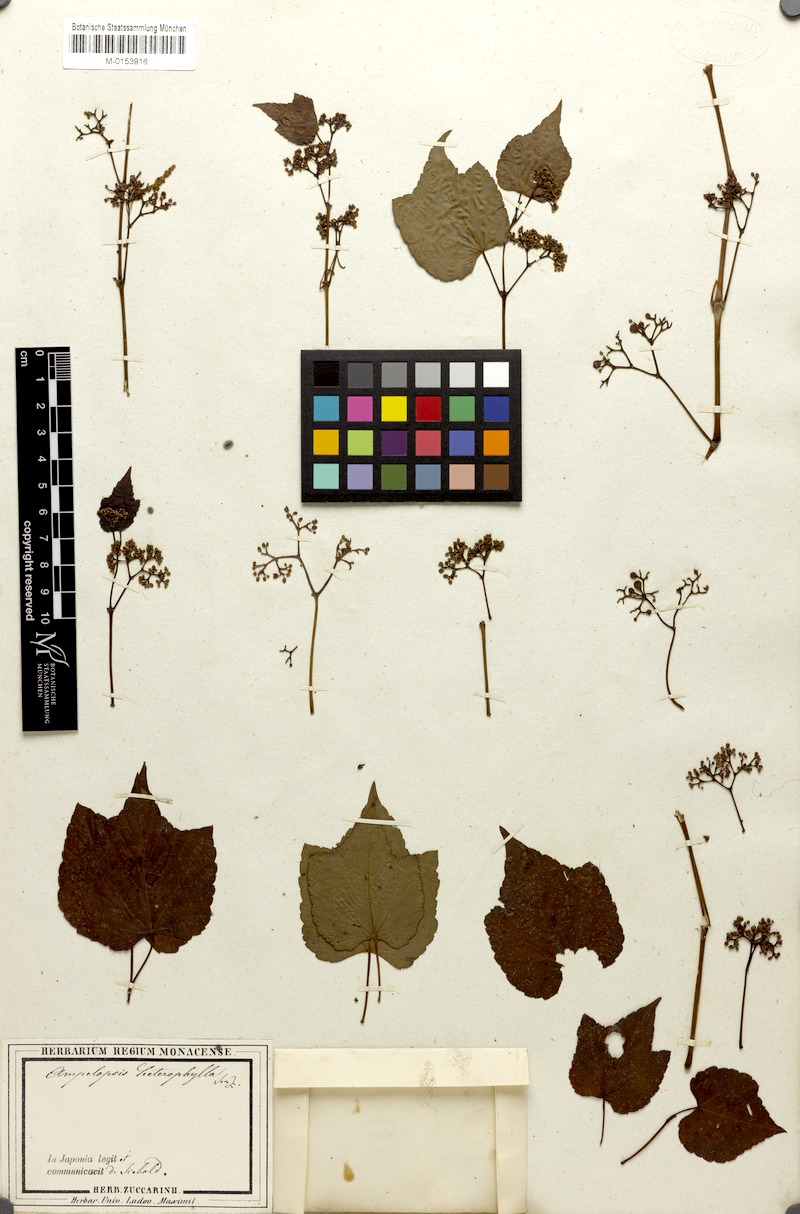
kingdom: Plantae
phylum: Tracheophyta
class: Magnoliopsida
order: Vitales
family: Vitaceae
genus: Ampelopsis
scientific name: Ampelopsis glandulosa
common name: Amur peppervine
